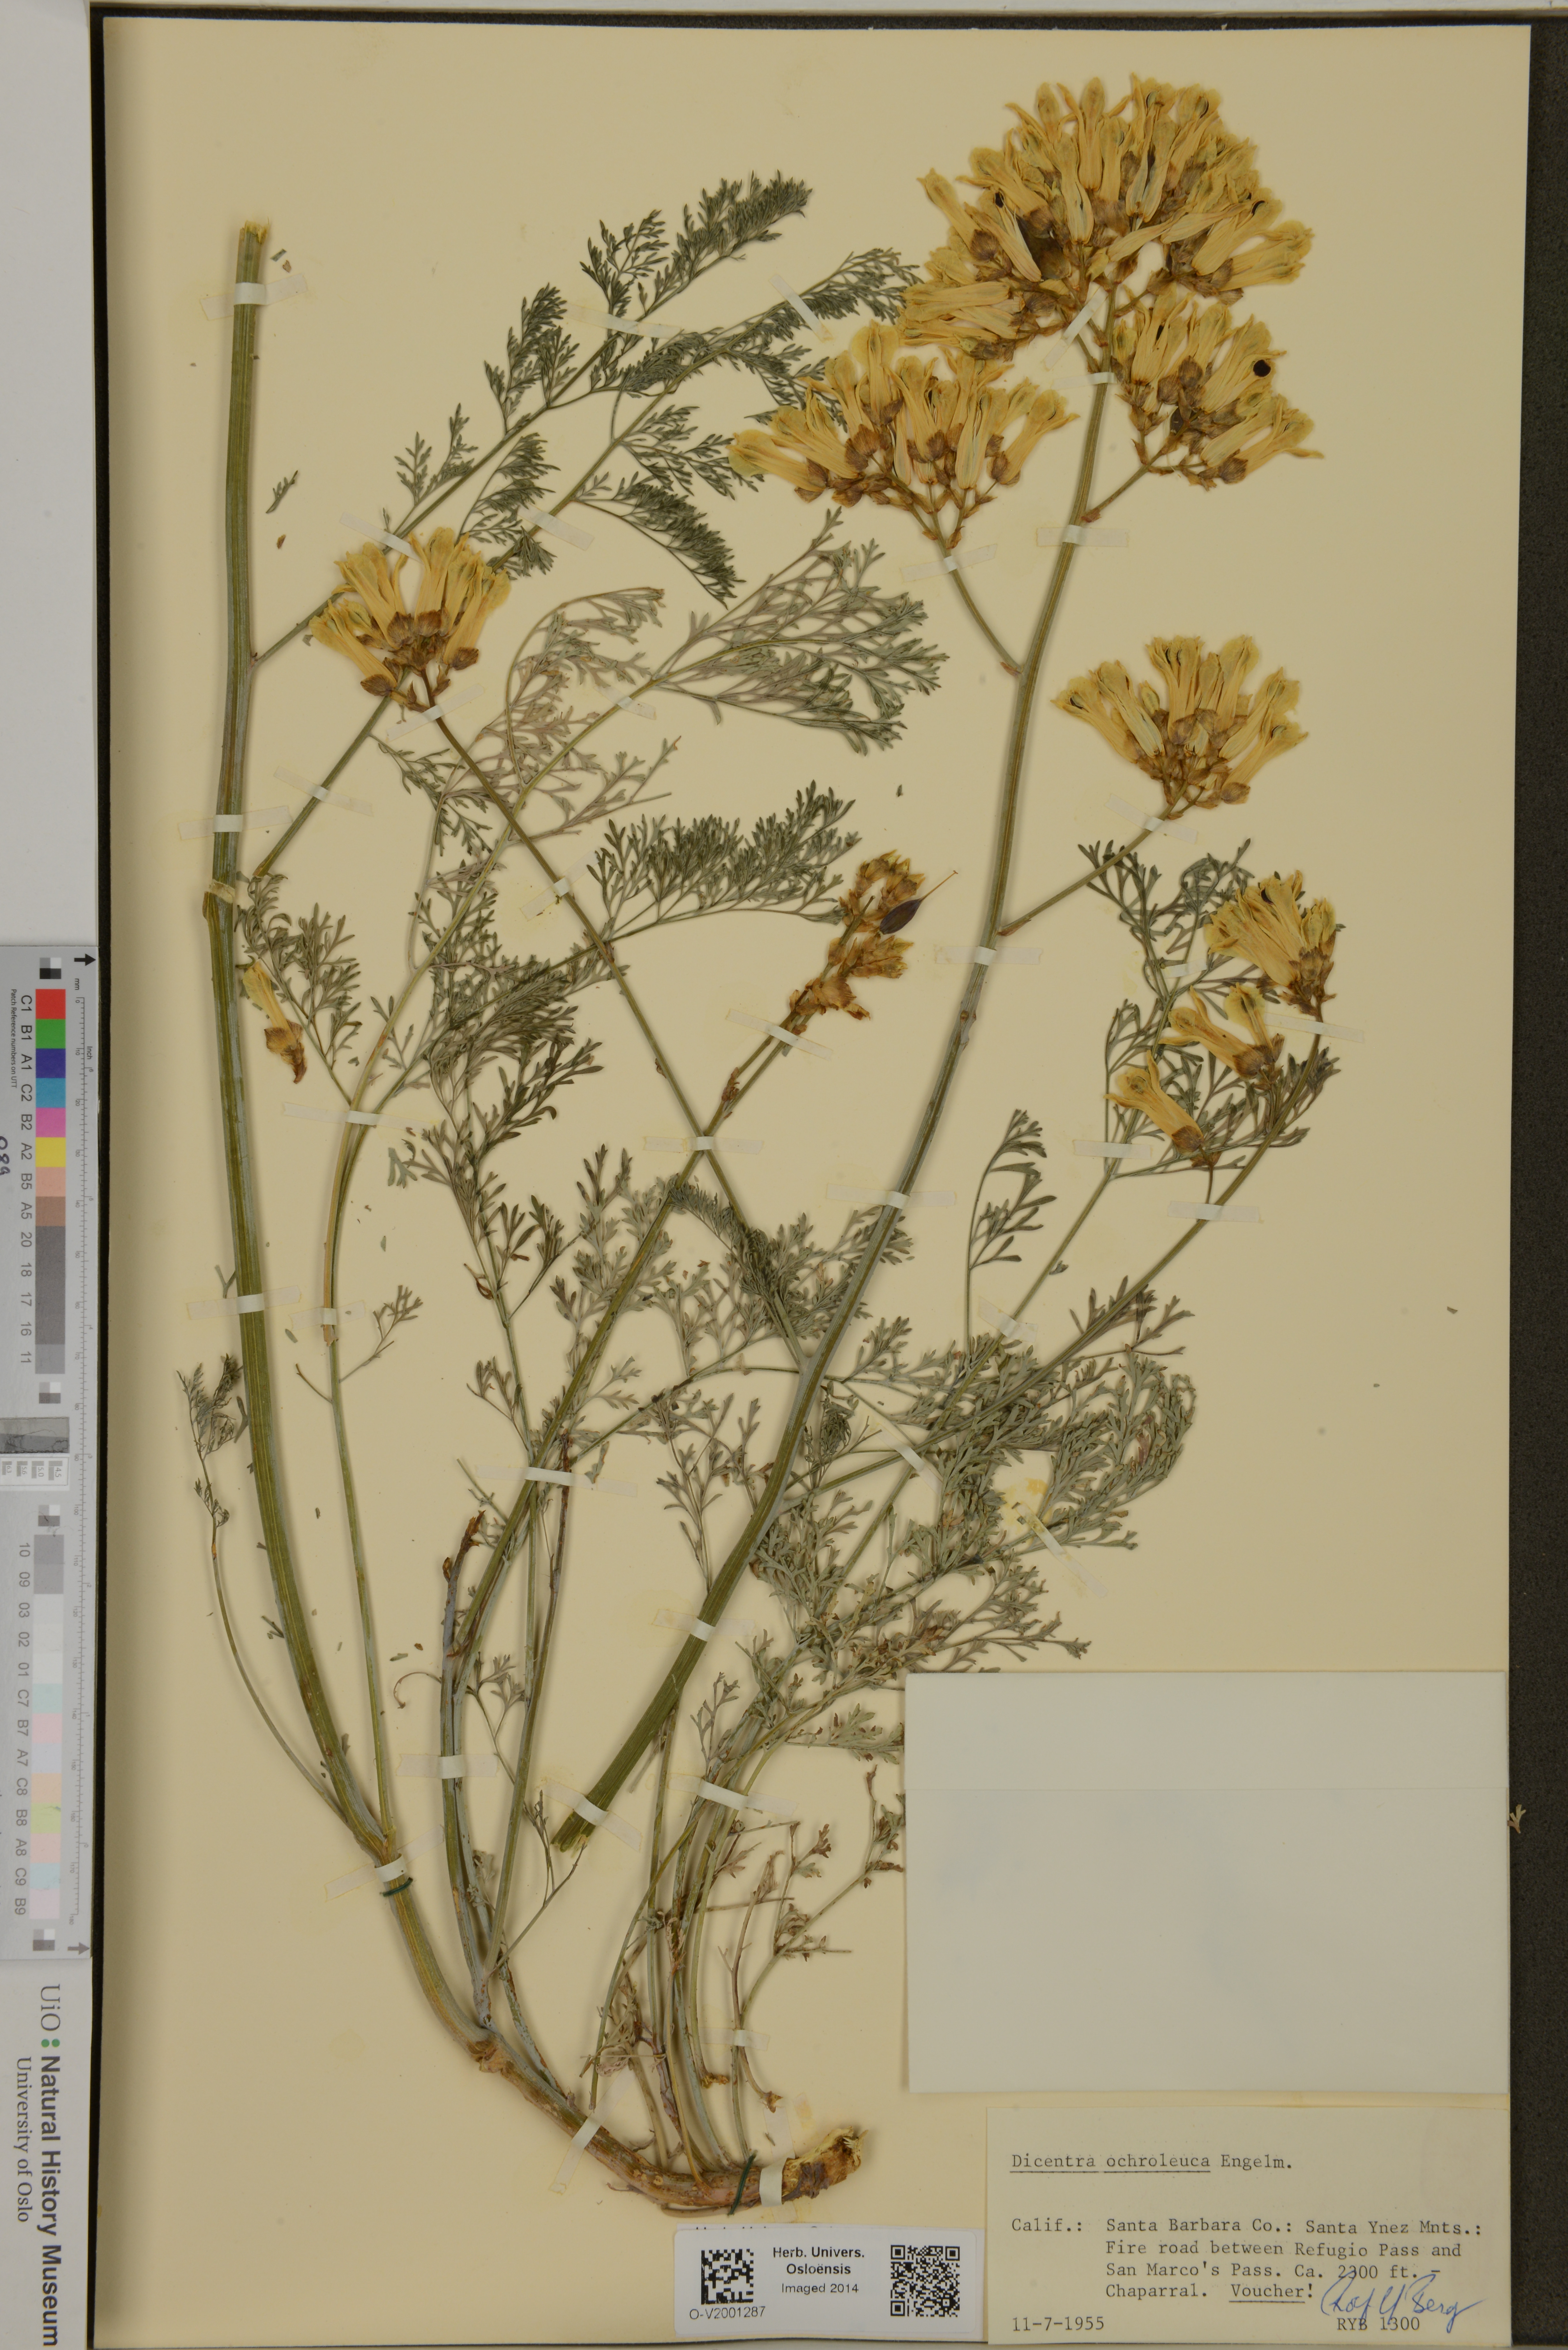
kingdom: Plantae
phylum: Tracheophyta
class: Magnoliopsida
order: Ranunculales
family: Papaveraceae
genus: Ehrendorferia
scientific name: Ehrendorferia ochroleuca
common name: White eardrops
